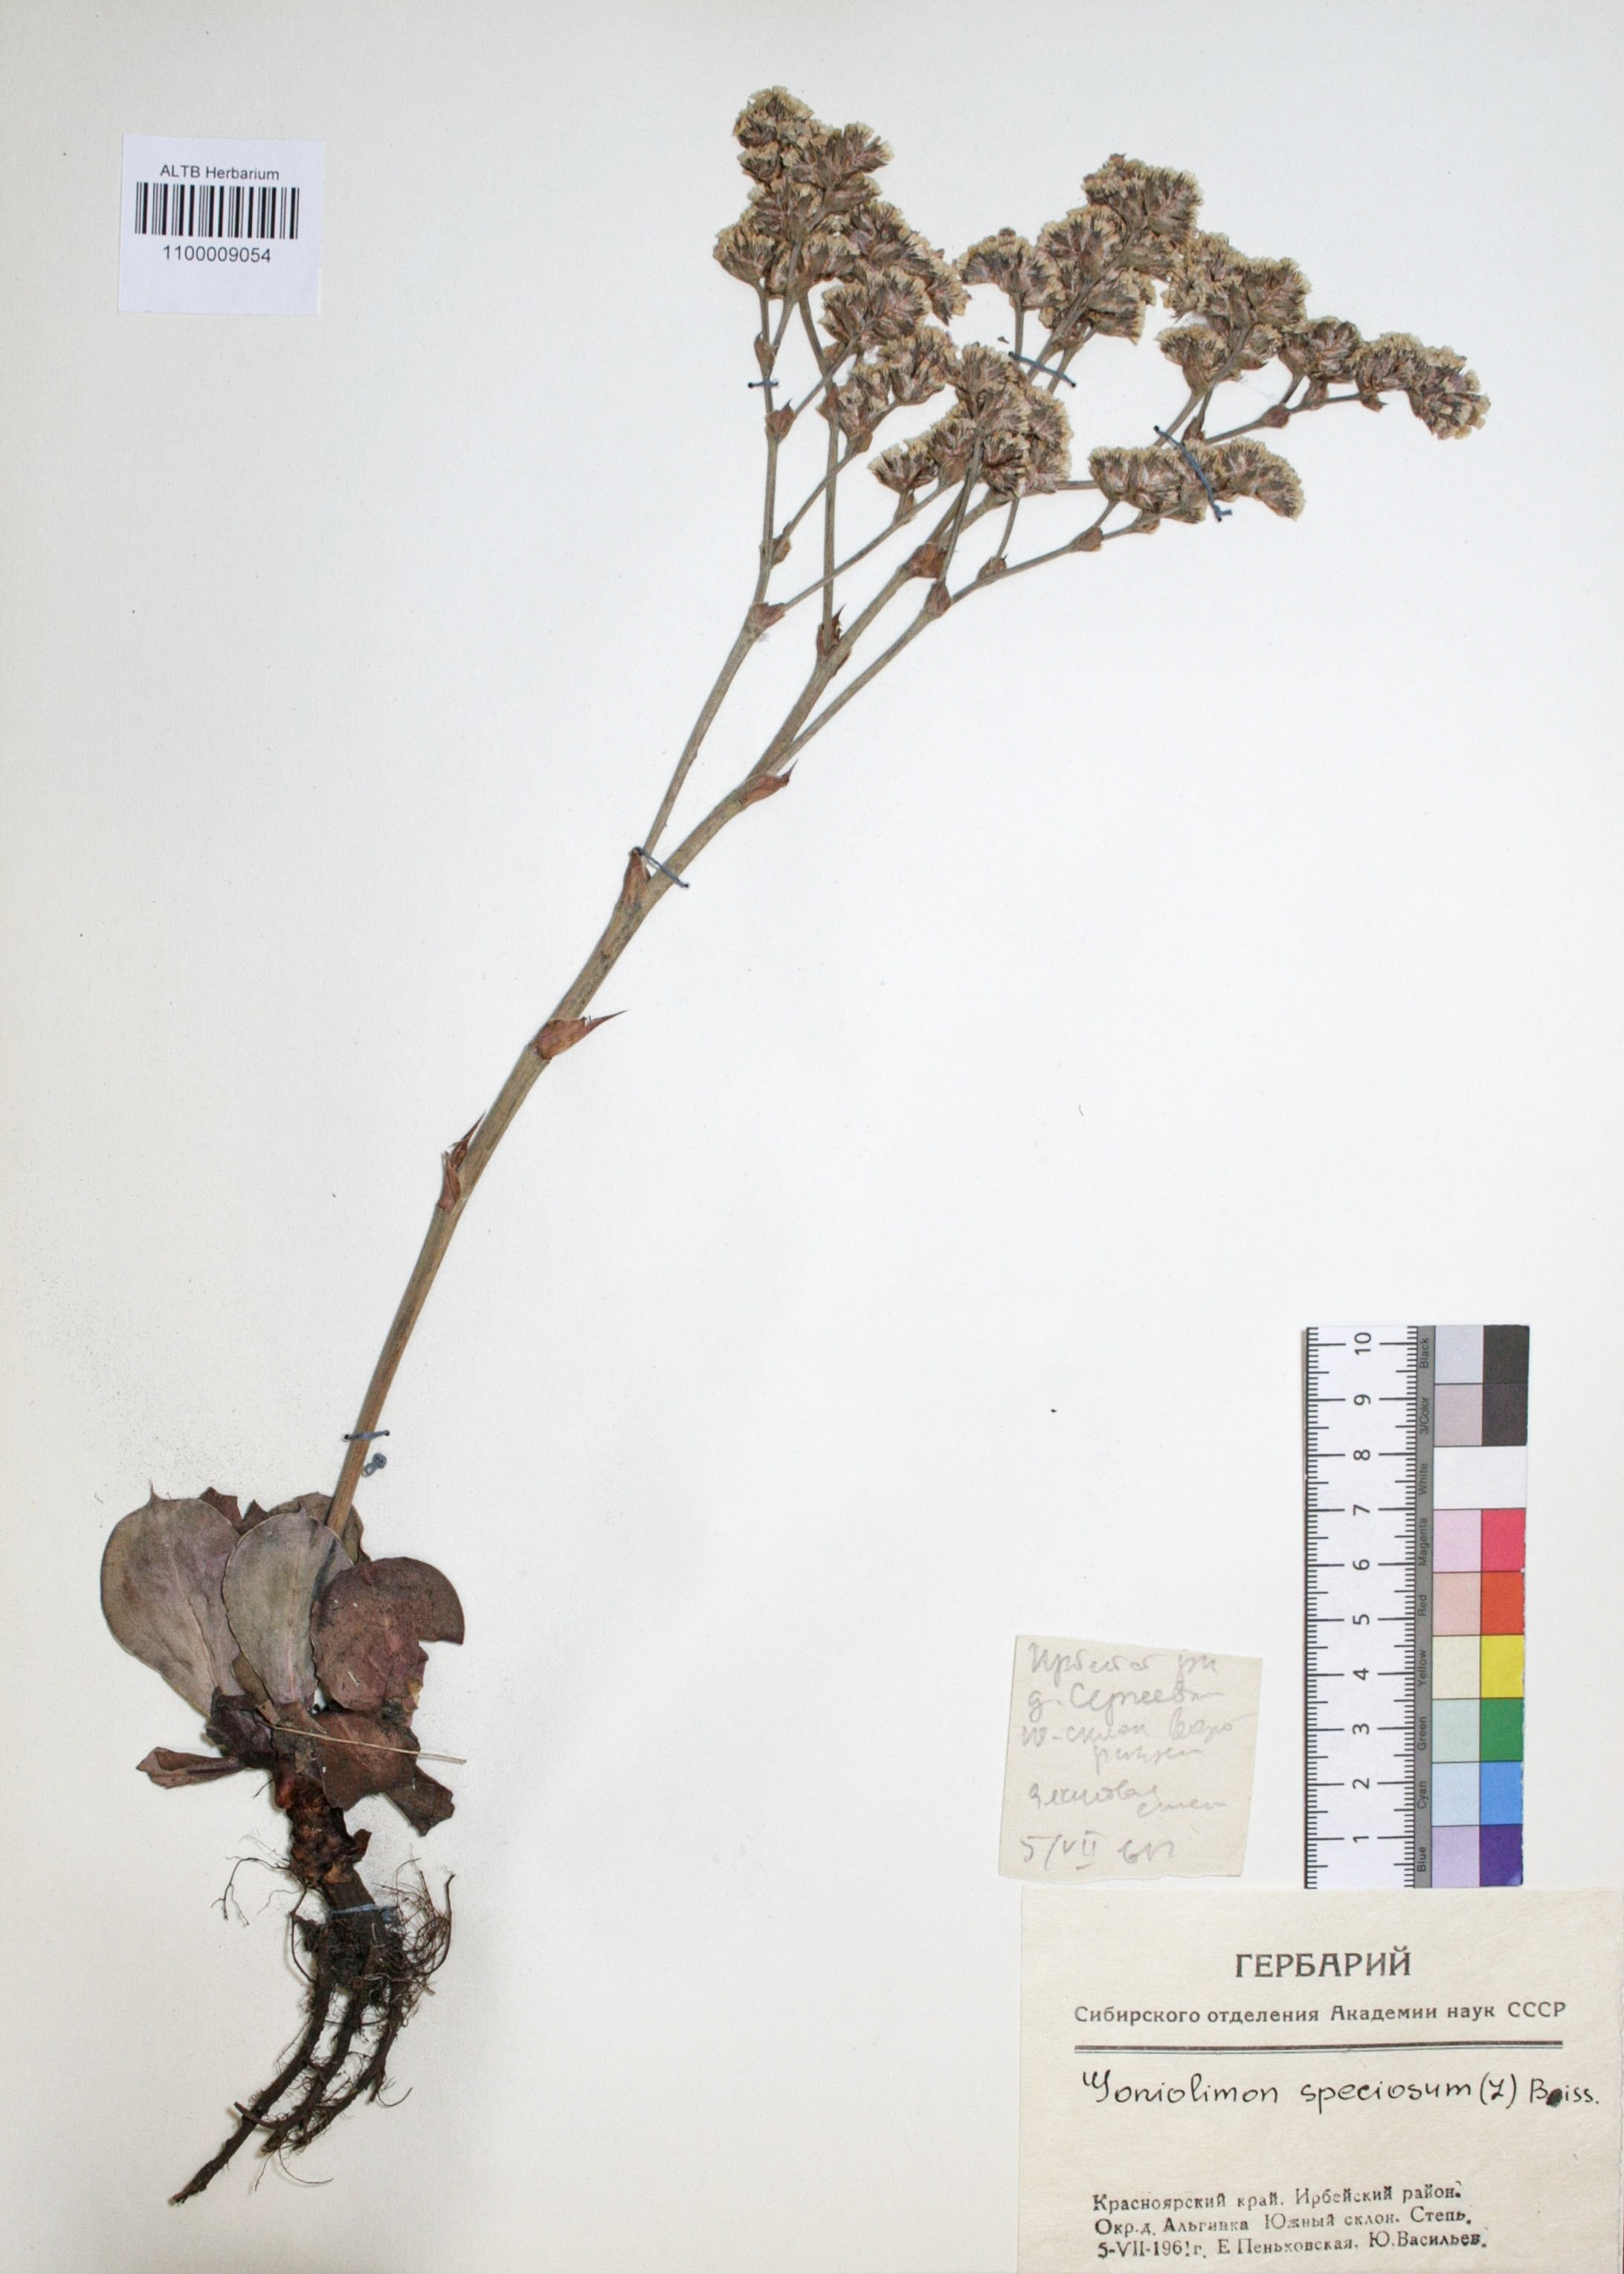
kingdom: Plantae
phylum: Tracheophyta
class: Magnoliopsida
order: Caryophyllales
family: Plumbaginaceae
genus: Goniolimon
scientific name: Goniolimon speciosum
